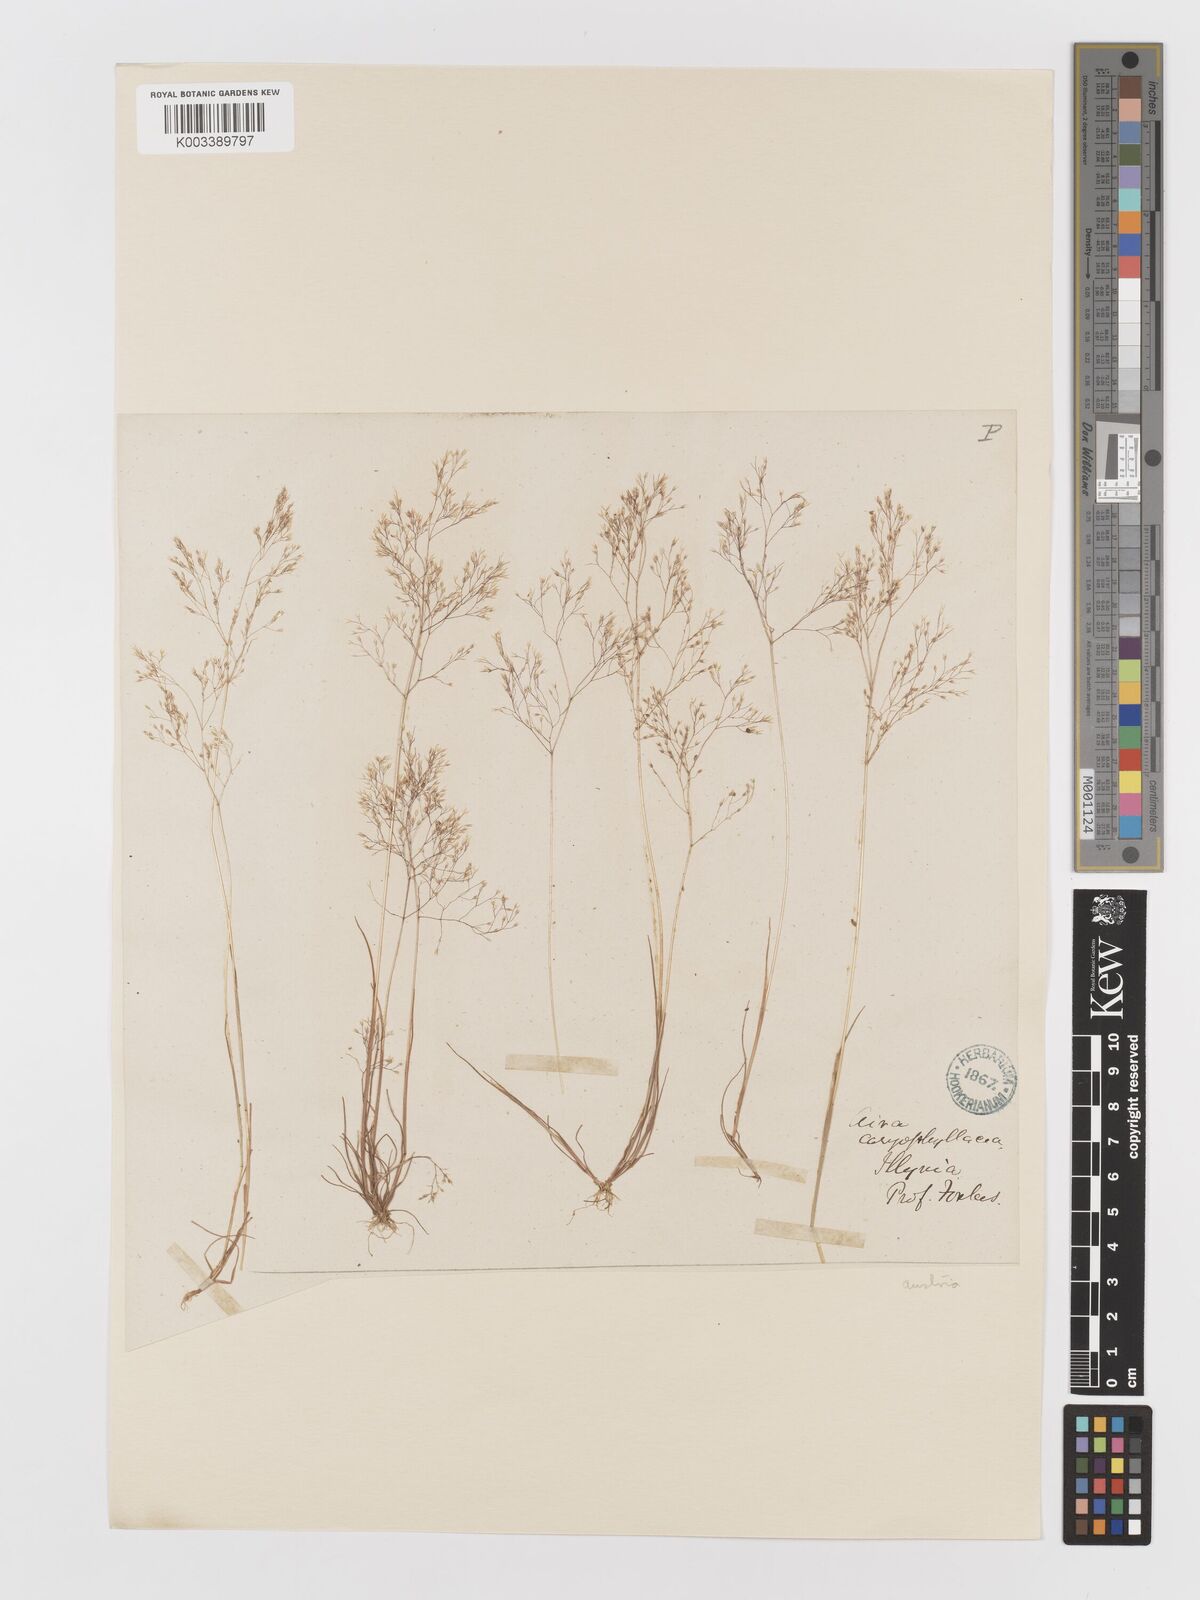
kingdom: Plantae
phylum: Tracheophyta
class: Liliopsida
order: Poales
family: Poaceae
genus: Aira
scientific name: Aira elegans
